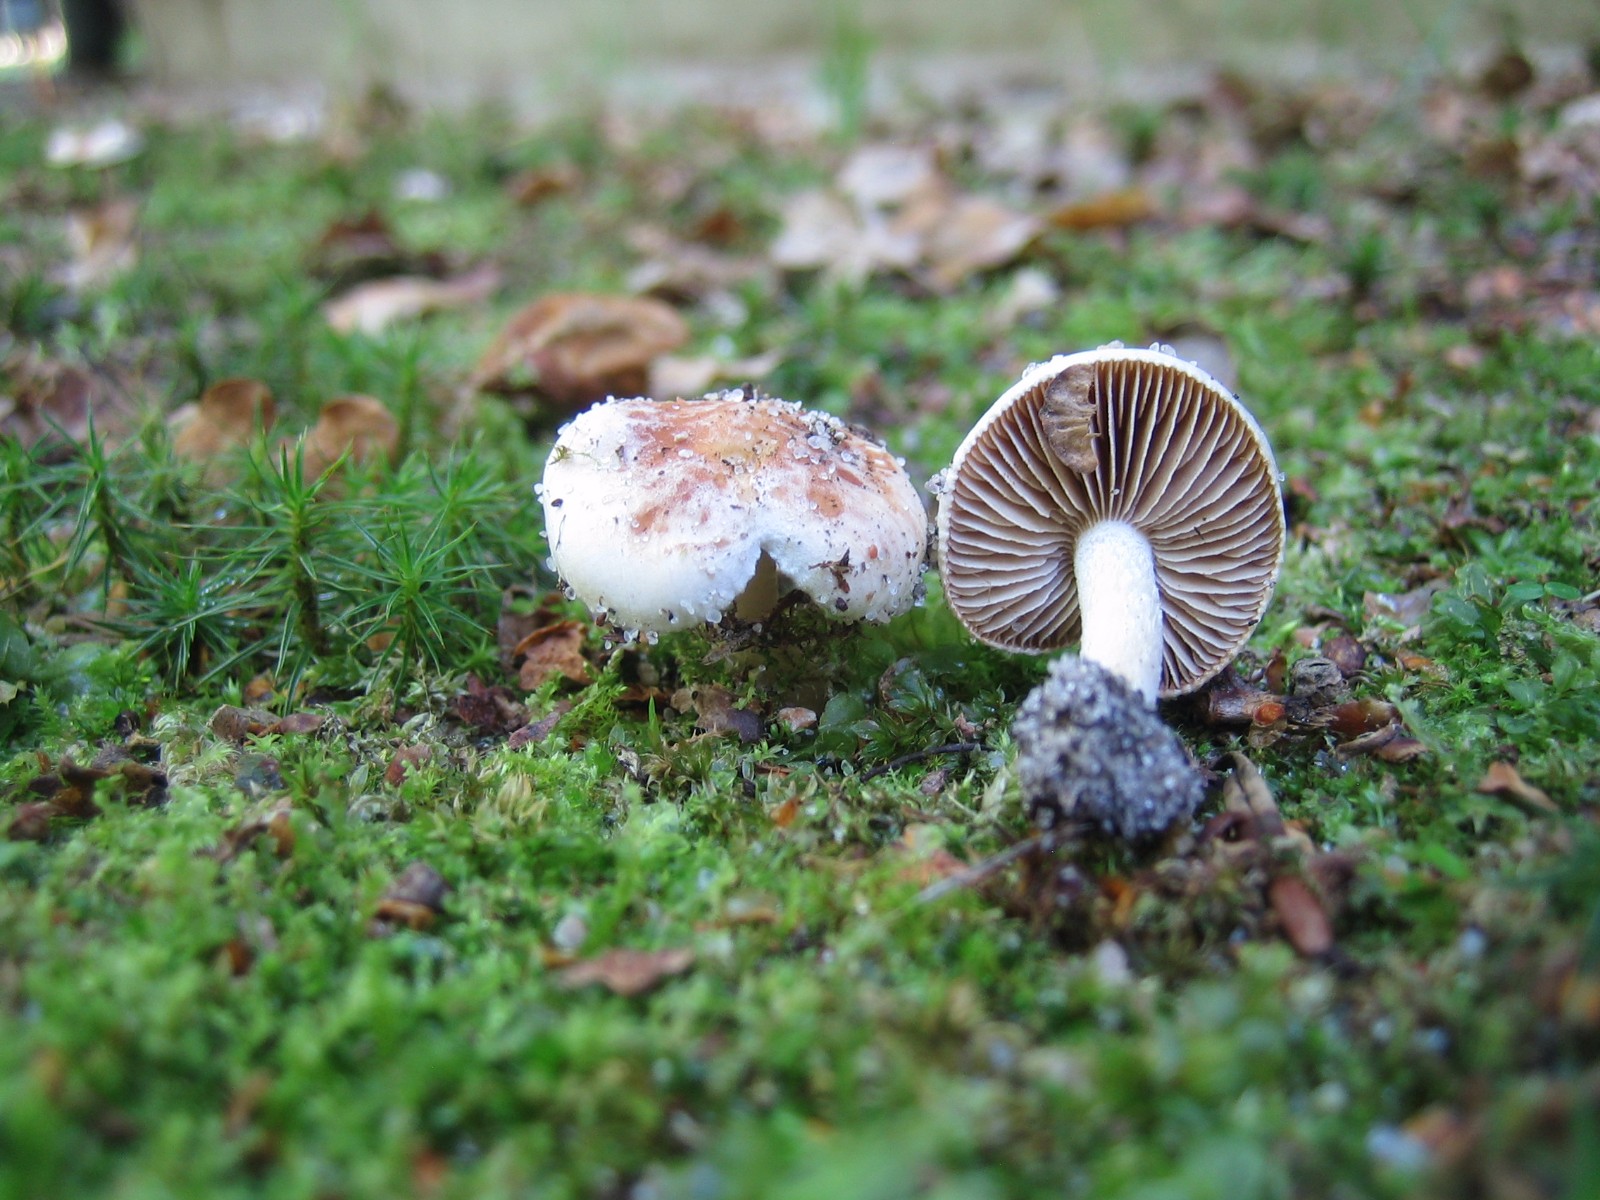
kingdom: Fungi
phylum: Basidiomycota
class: Agaricomycetes
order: Agaricales
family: Hymenogastraceae
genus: Hebeloma
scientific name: Hebeloma
